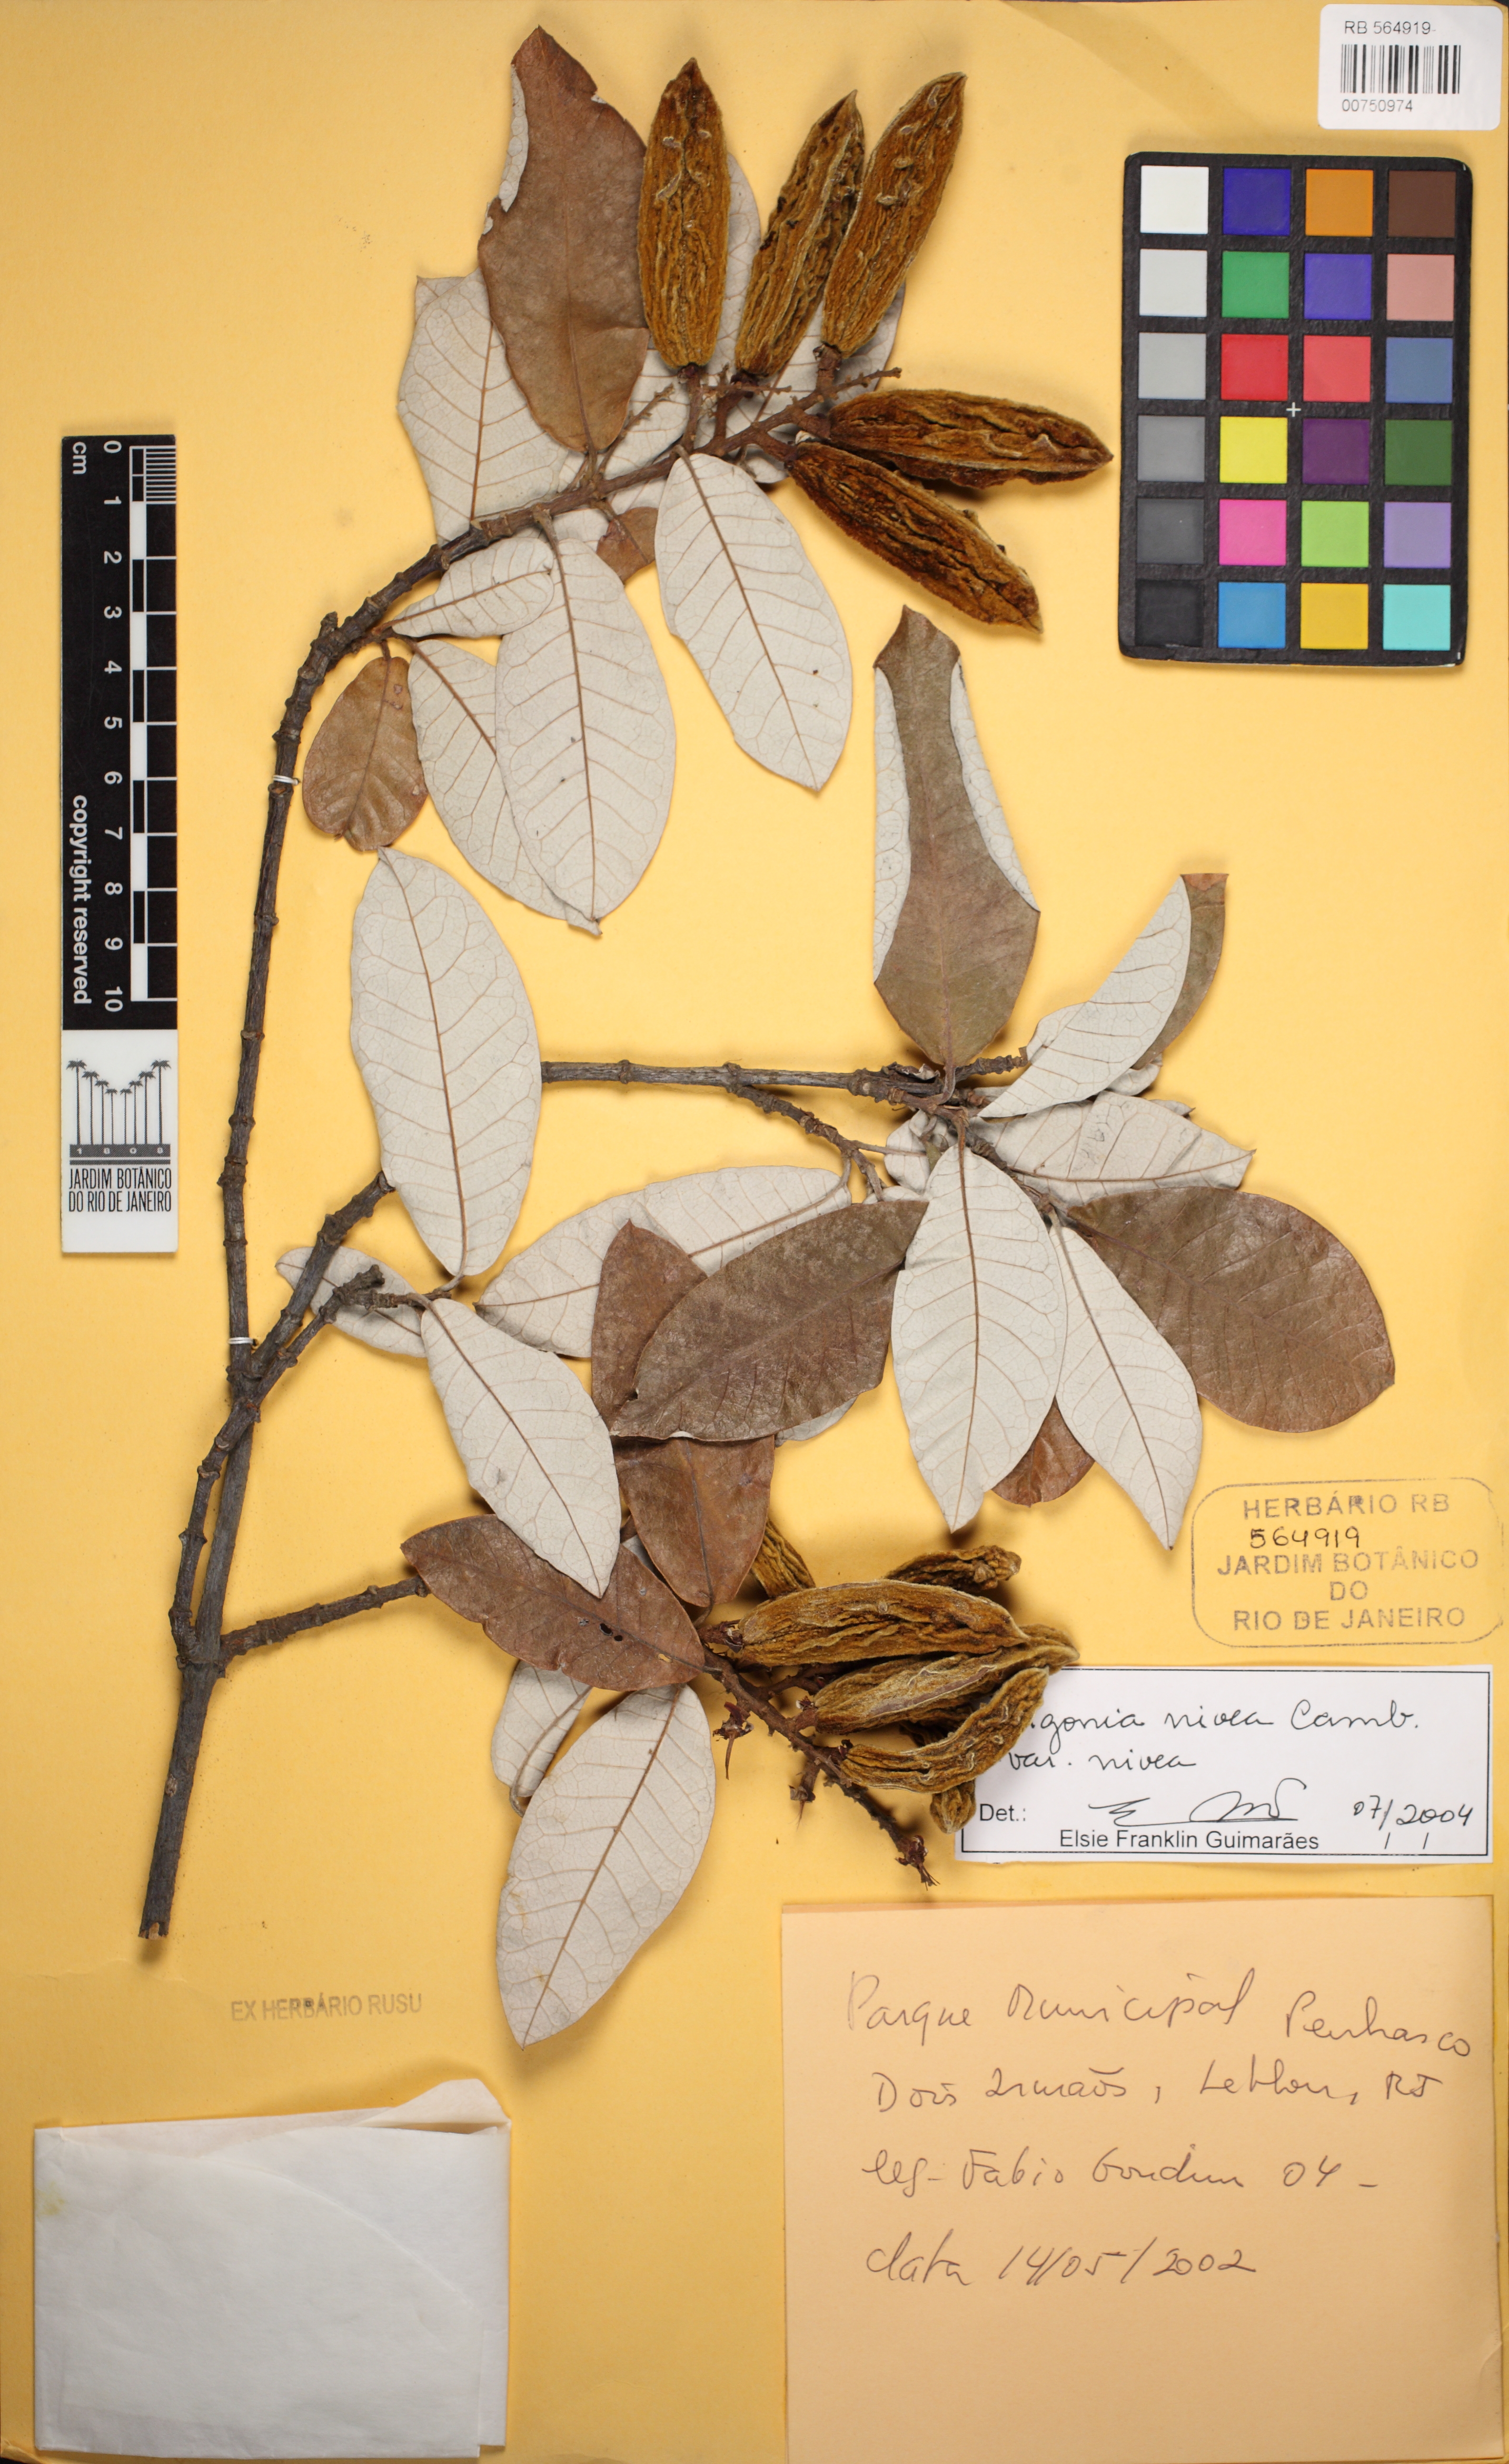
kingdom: Plantae
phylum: Tracheophyta
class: Magnoliopsida
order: Malpighiales
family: Trigoniaceae
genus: Trigonia
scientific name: Trigonia nivea
